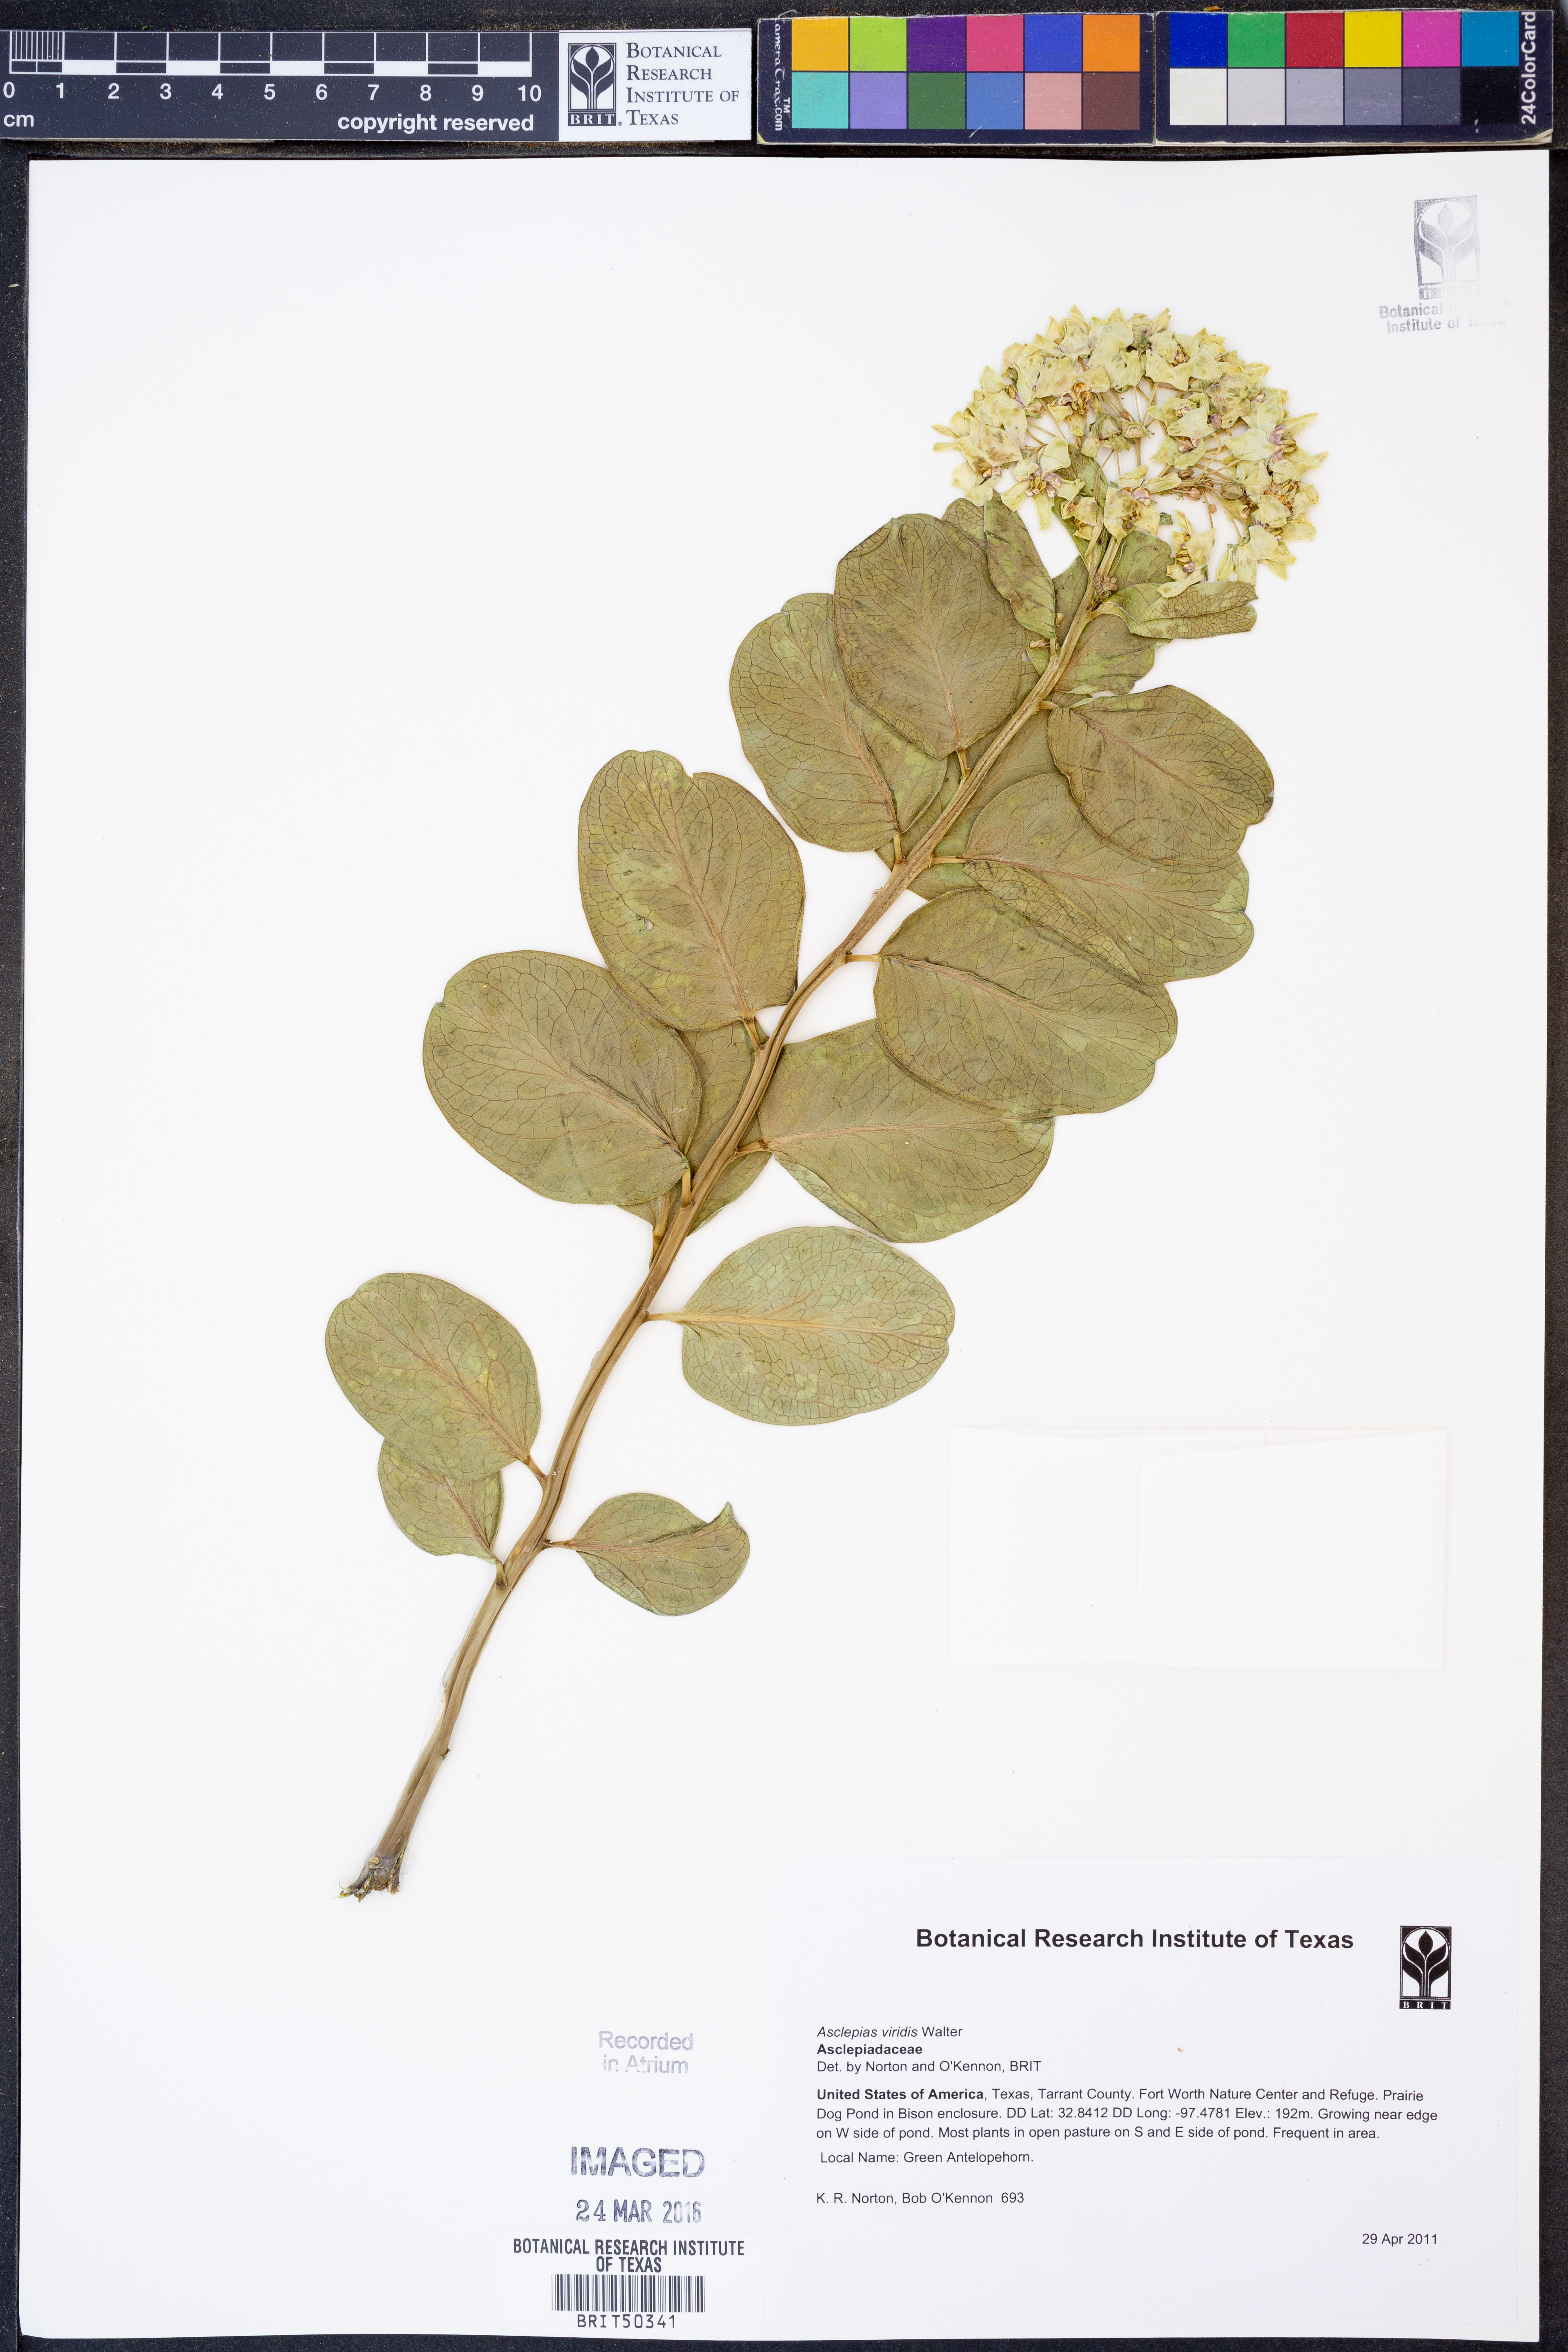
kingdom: Plantae
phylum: Tracheophyta
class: Magnoliopsida
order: Gentianales
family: Apocynaceae
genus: Asclepias
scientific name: Asclepias viridis
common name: Antelope-horns
